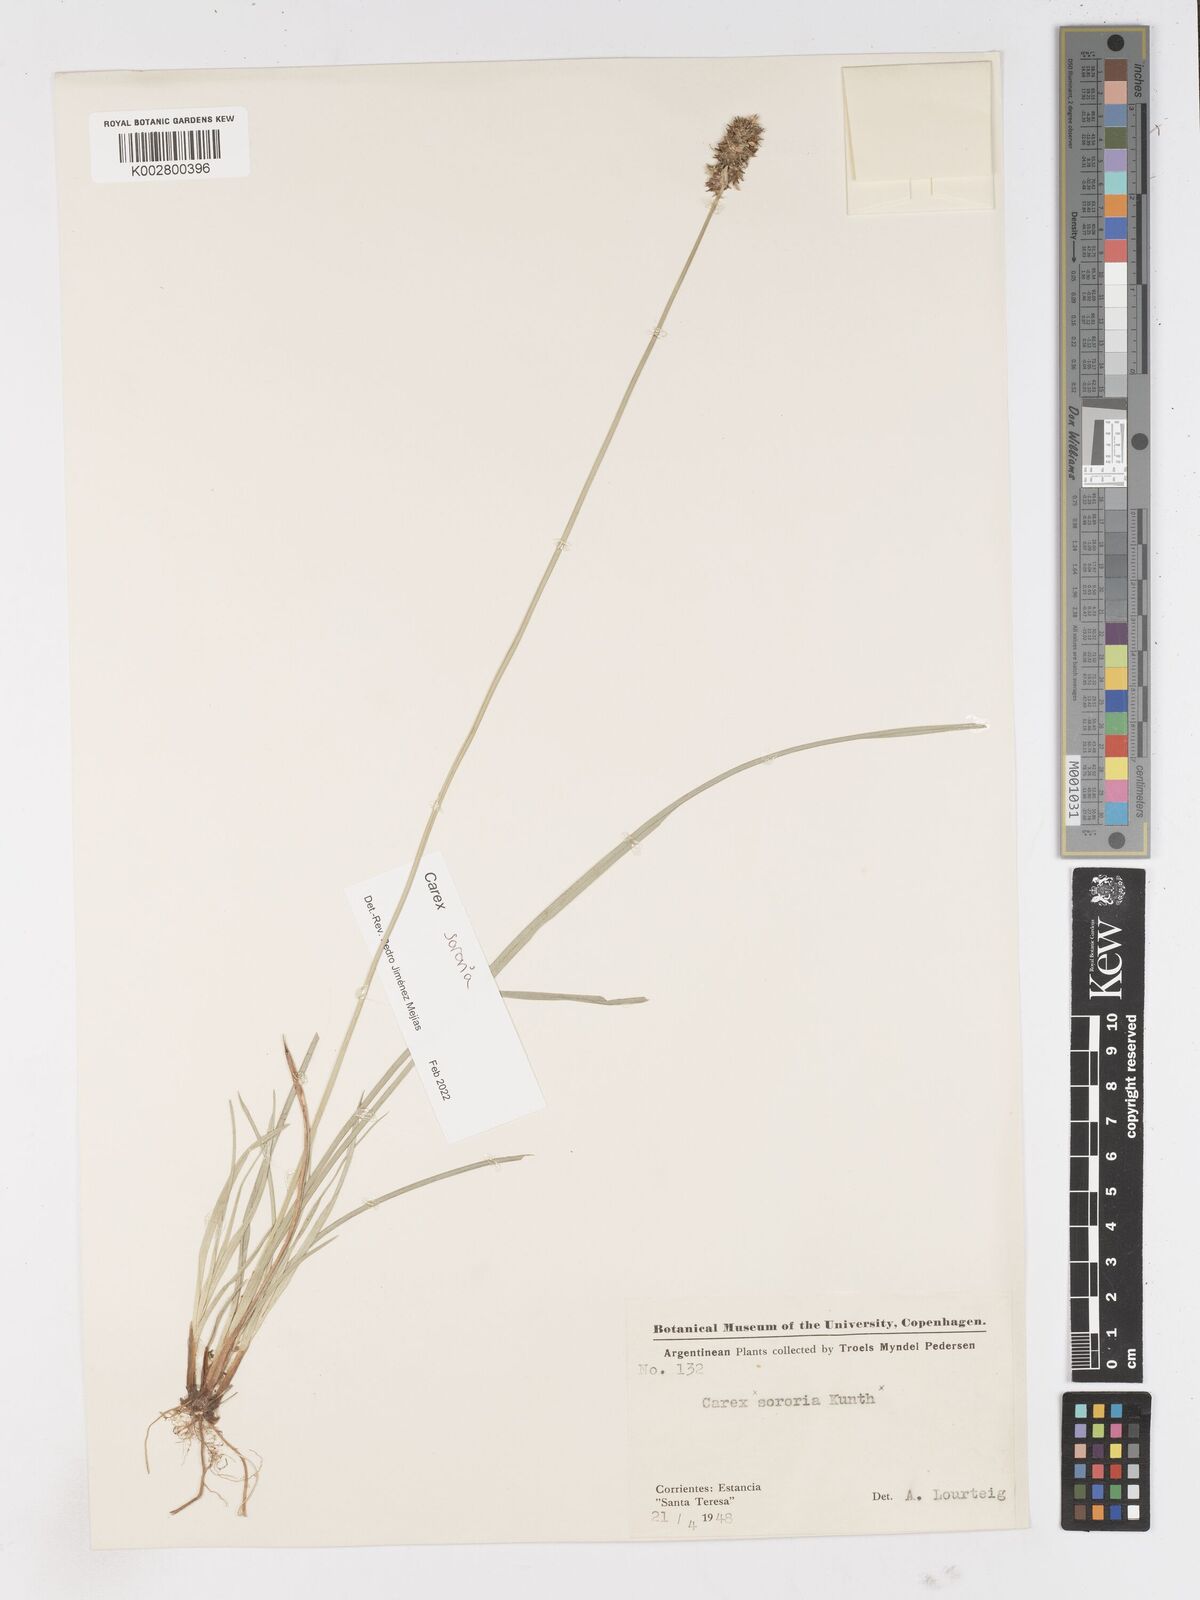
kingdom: Plantae
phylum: Tracheophyta
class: Liliopsida
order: Poales
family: Cyperaceae
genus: Carex
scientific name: Carex sororia
